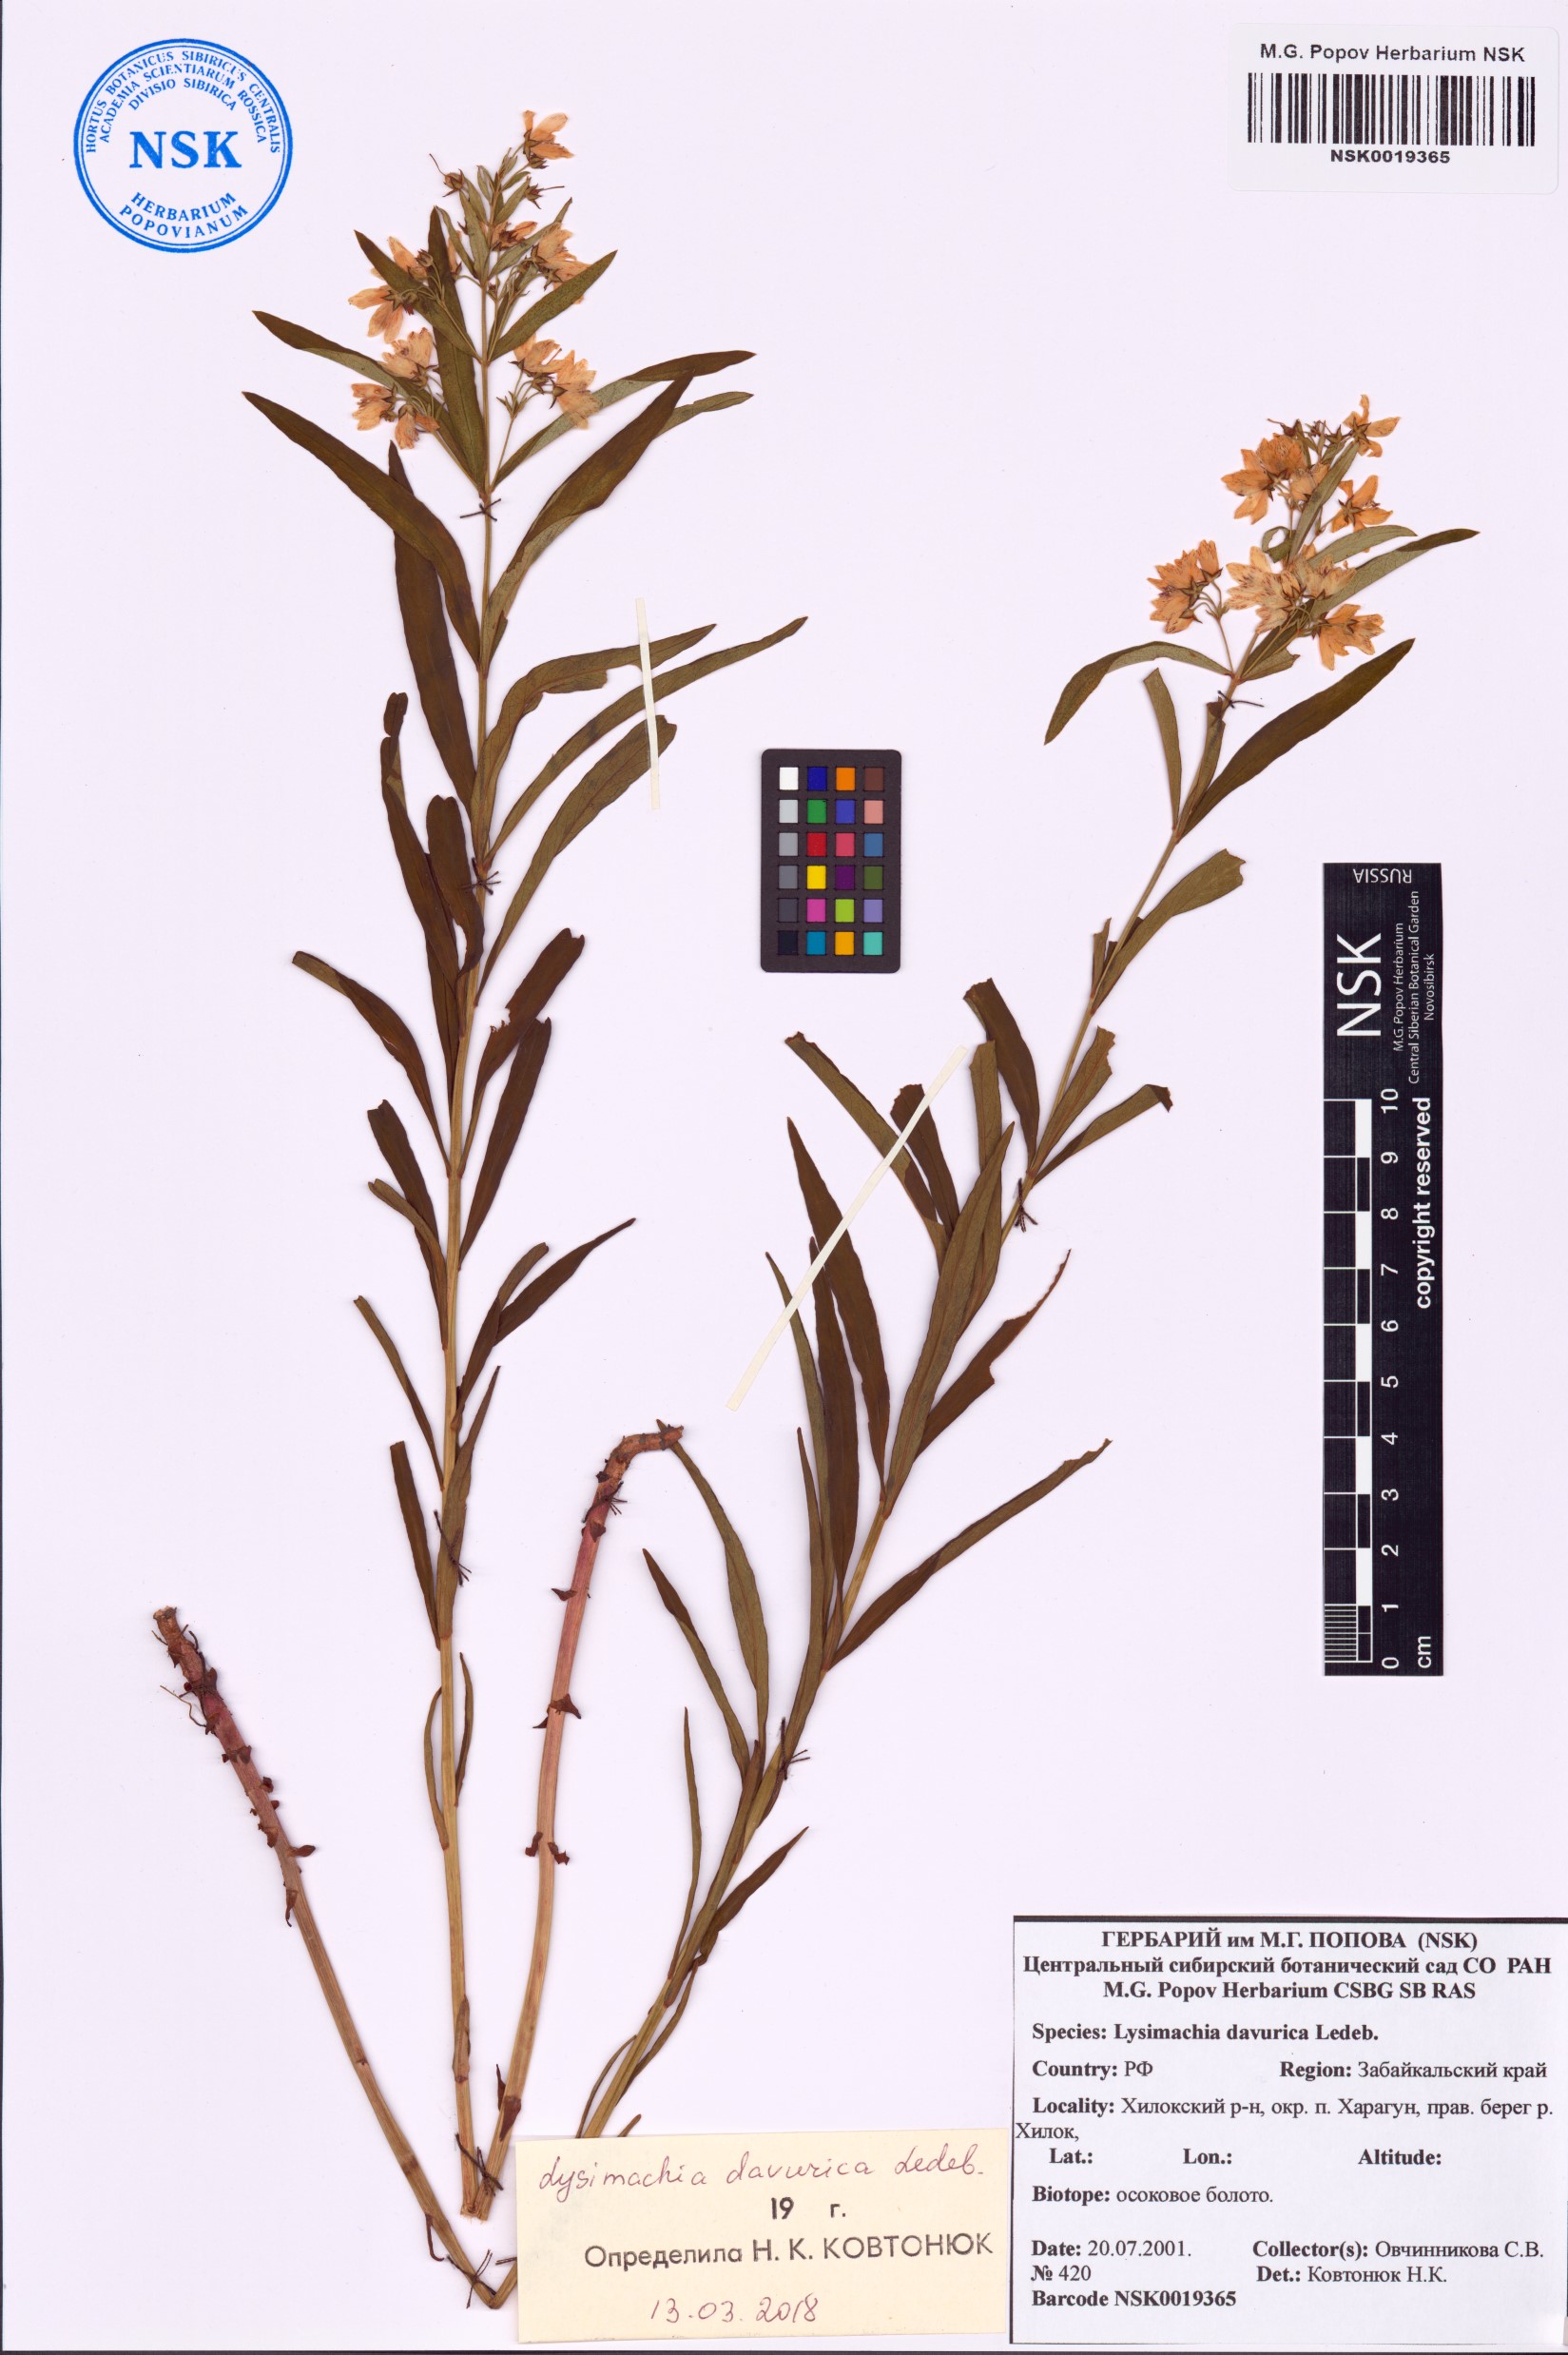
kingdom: Plantae
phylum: Tracheophyta
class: Magnoliopsida
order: Ericales
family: Primulaceae
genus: Lysimachia
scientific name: Lysimachia davurica
